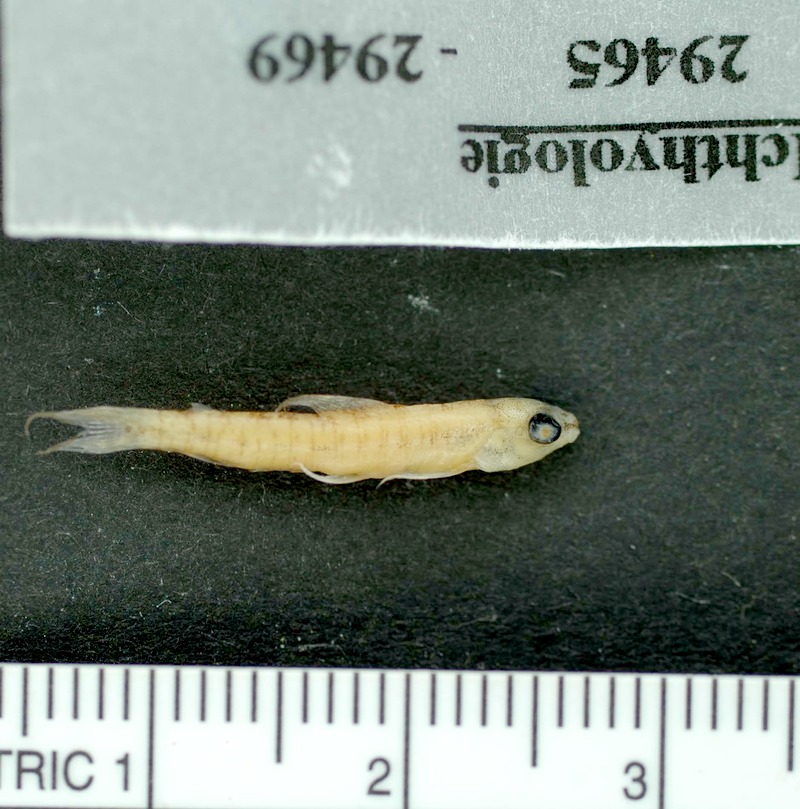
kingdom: Animalia
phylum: Chordata
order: Characiformes
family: Crenuchidae
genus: Characidium
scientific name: Characidium heinianum
